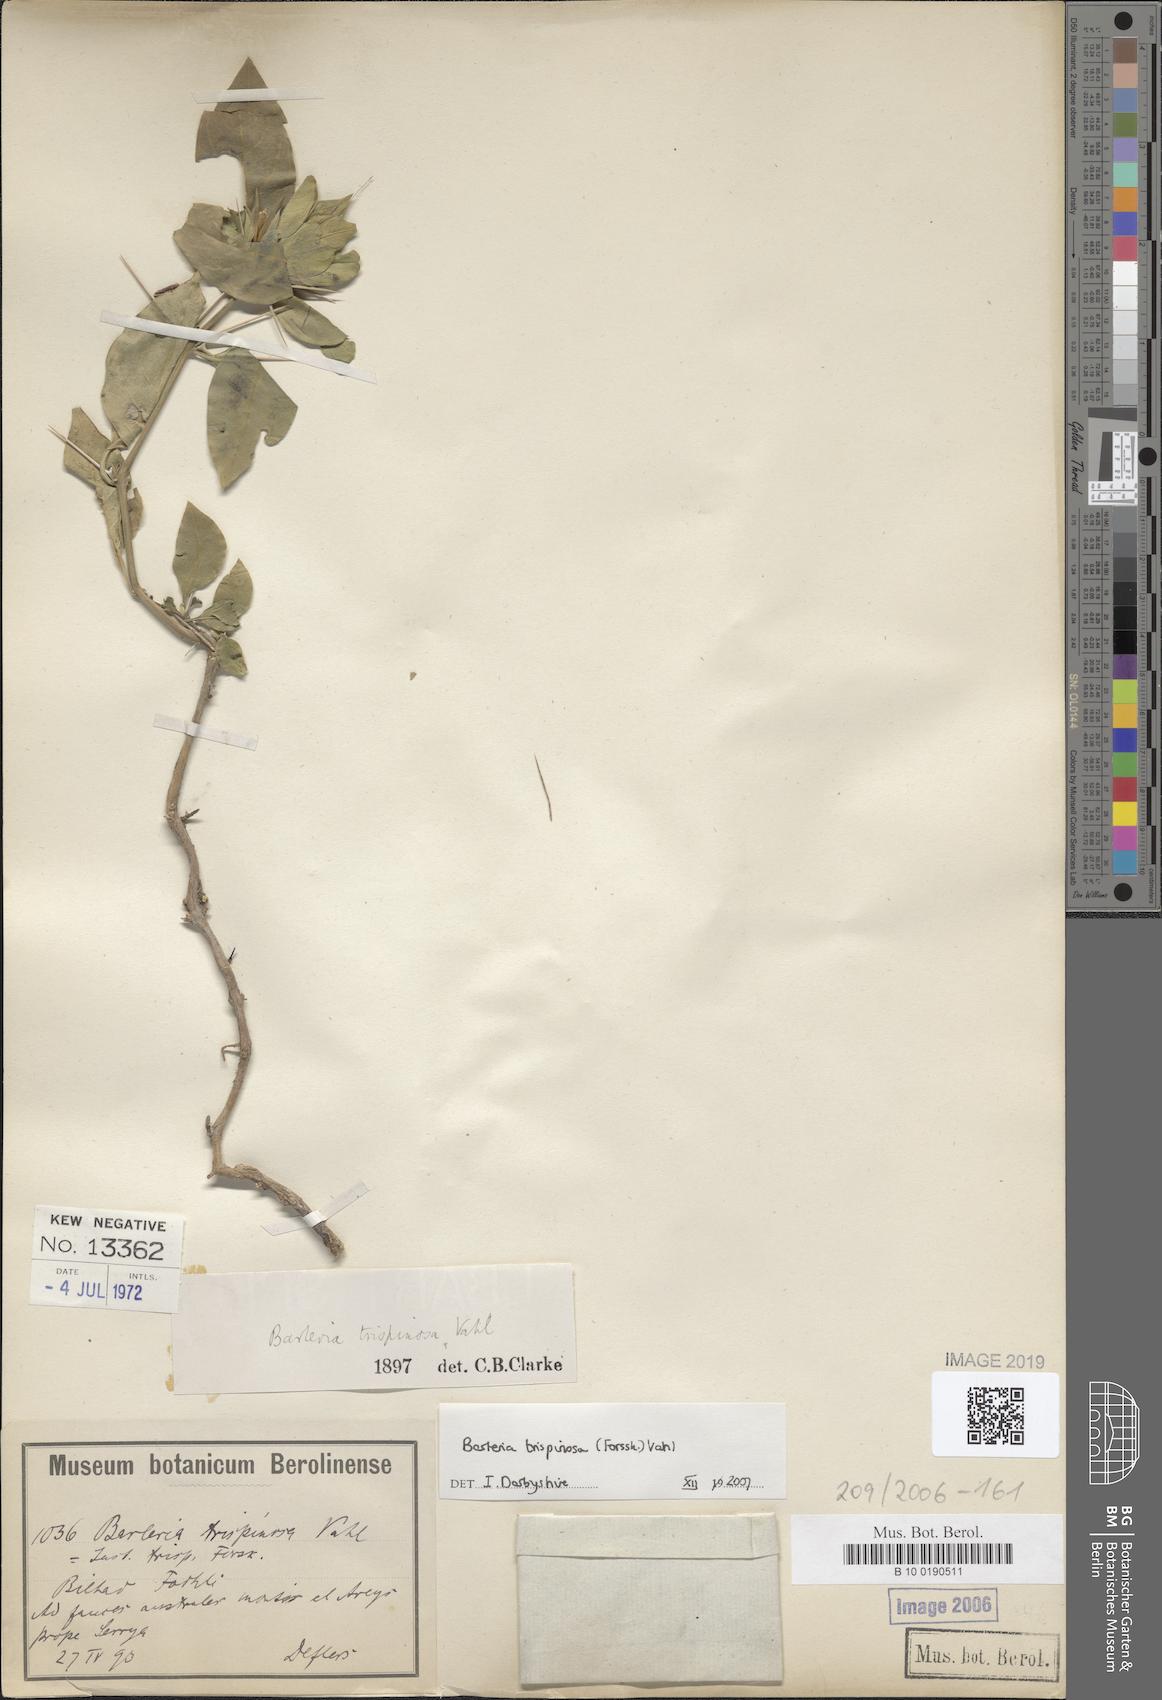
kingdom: Plantae
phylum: Tracheophyta
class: Magnoliopsida
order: Lamiales
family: Acanthaceae
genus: Barleria
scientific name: Barleria trispinosa
